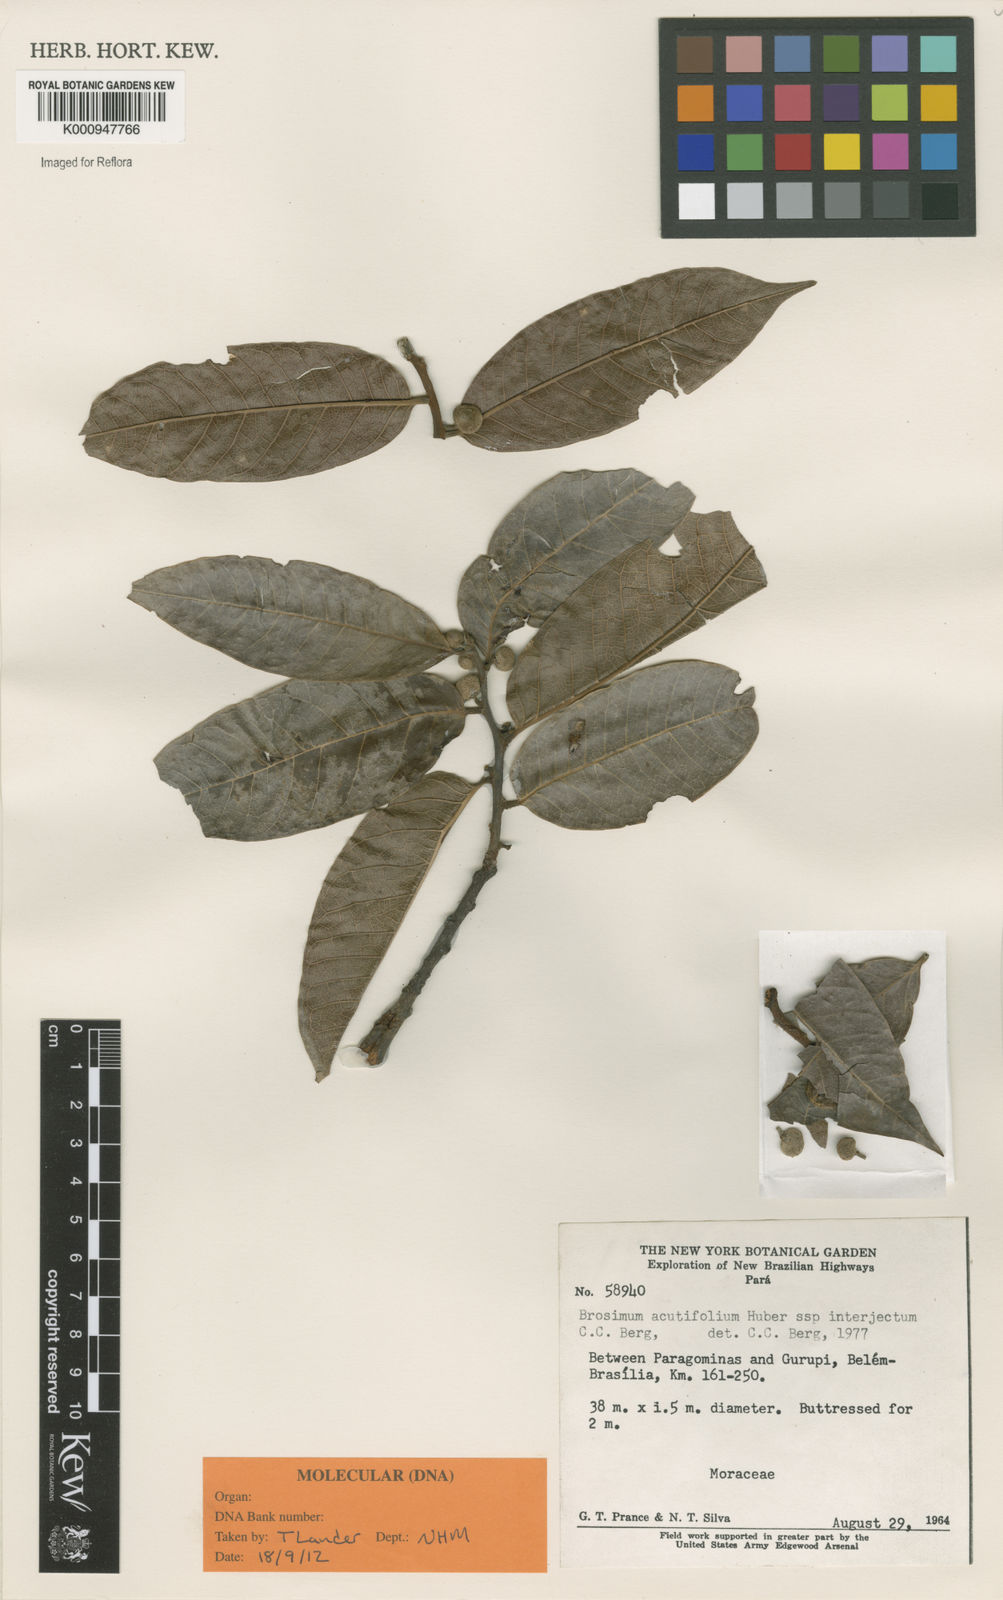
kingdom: Plantae
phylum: Tracheophyta
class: Magnoliopsida
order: Rosales
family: Moraceae
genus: Brosimum
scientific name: Brosimum acutifolium
